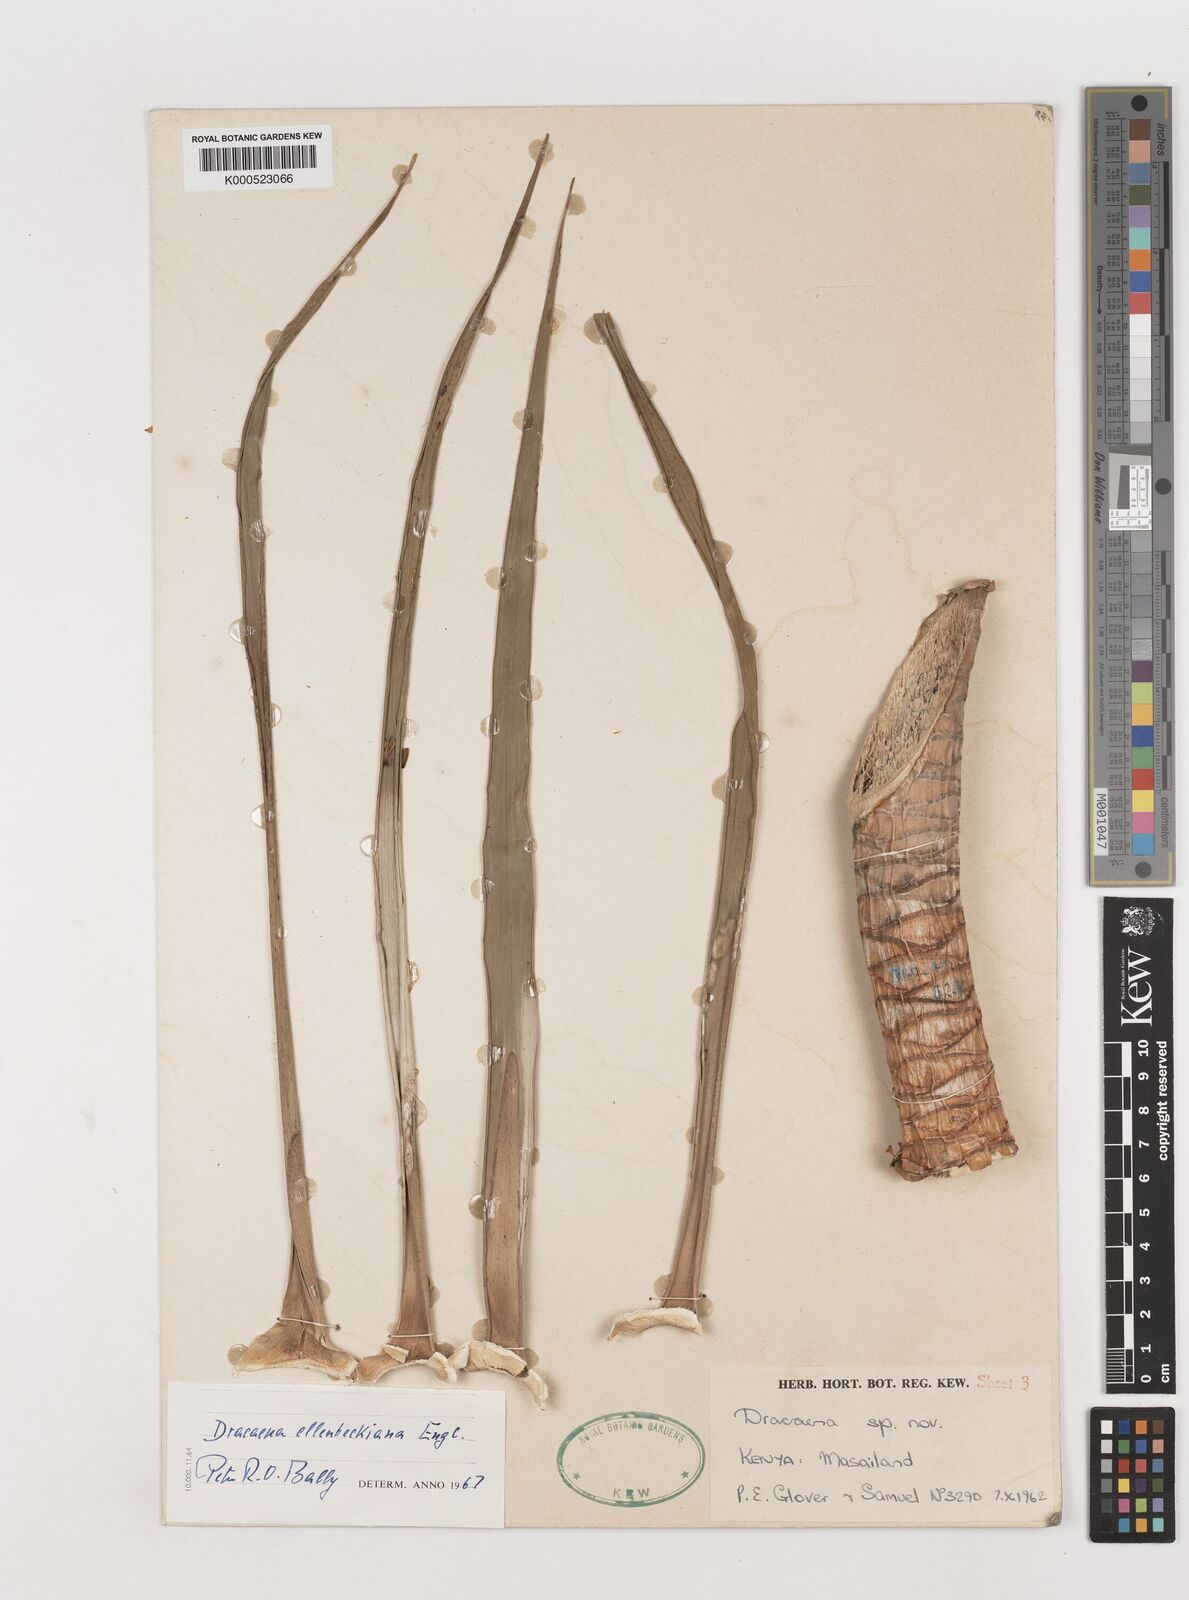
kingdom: Plantae
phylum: Tracheophyta
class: Liliopsida
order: Asparagales
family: Asparagaceae
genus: Dracaena
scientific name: Dracaena ellenbeckiana
